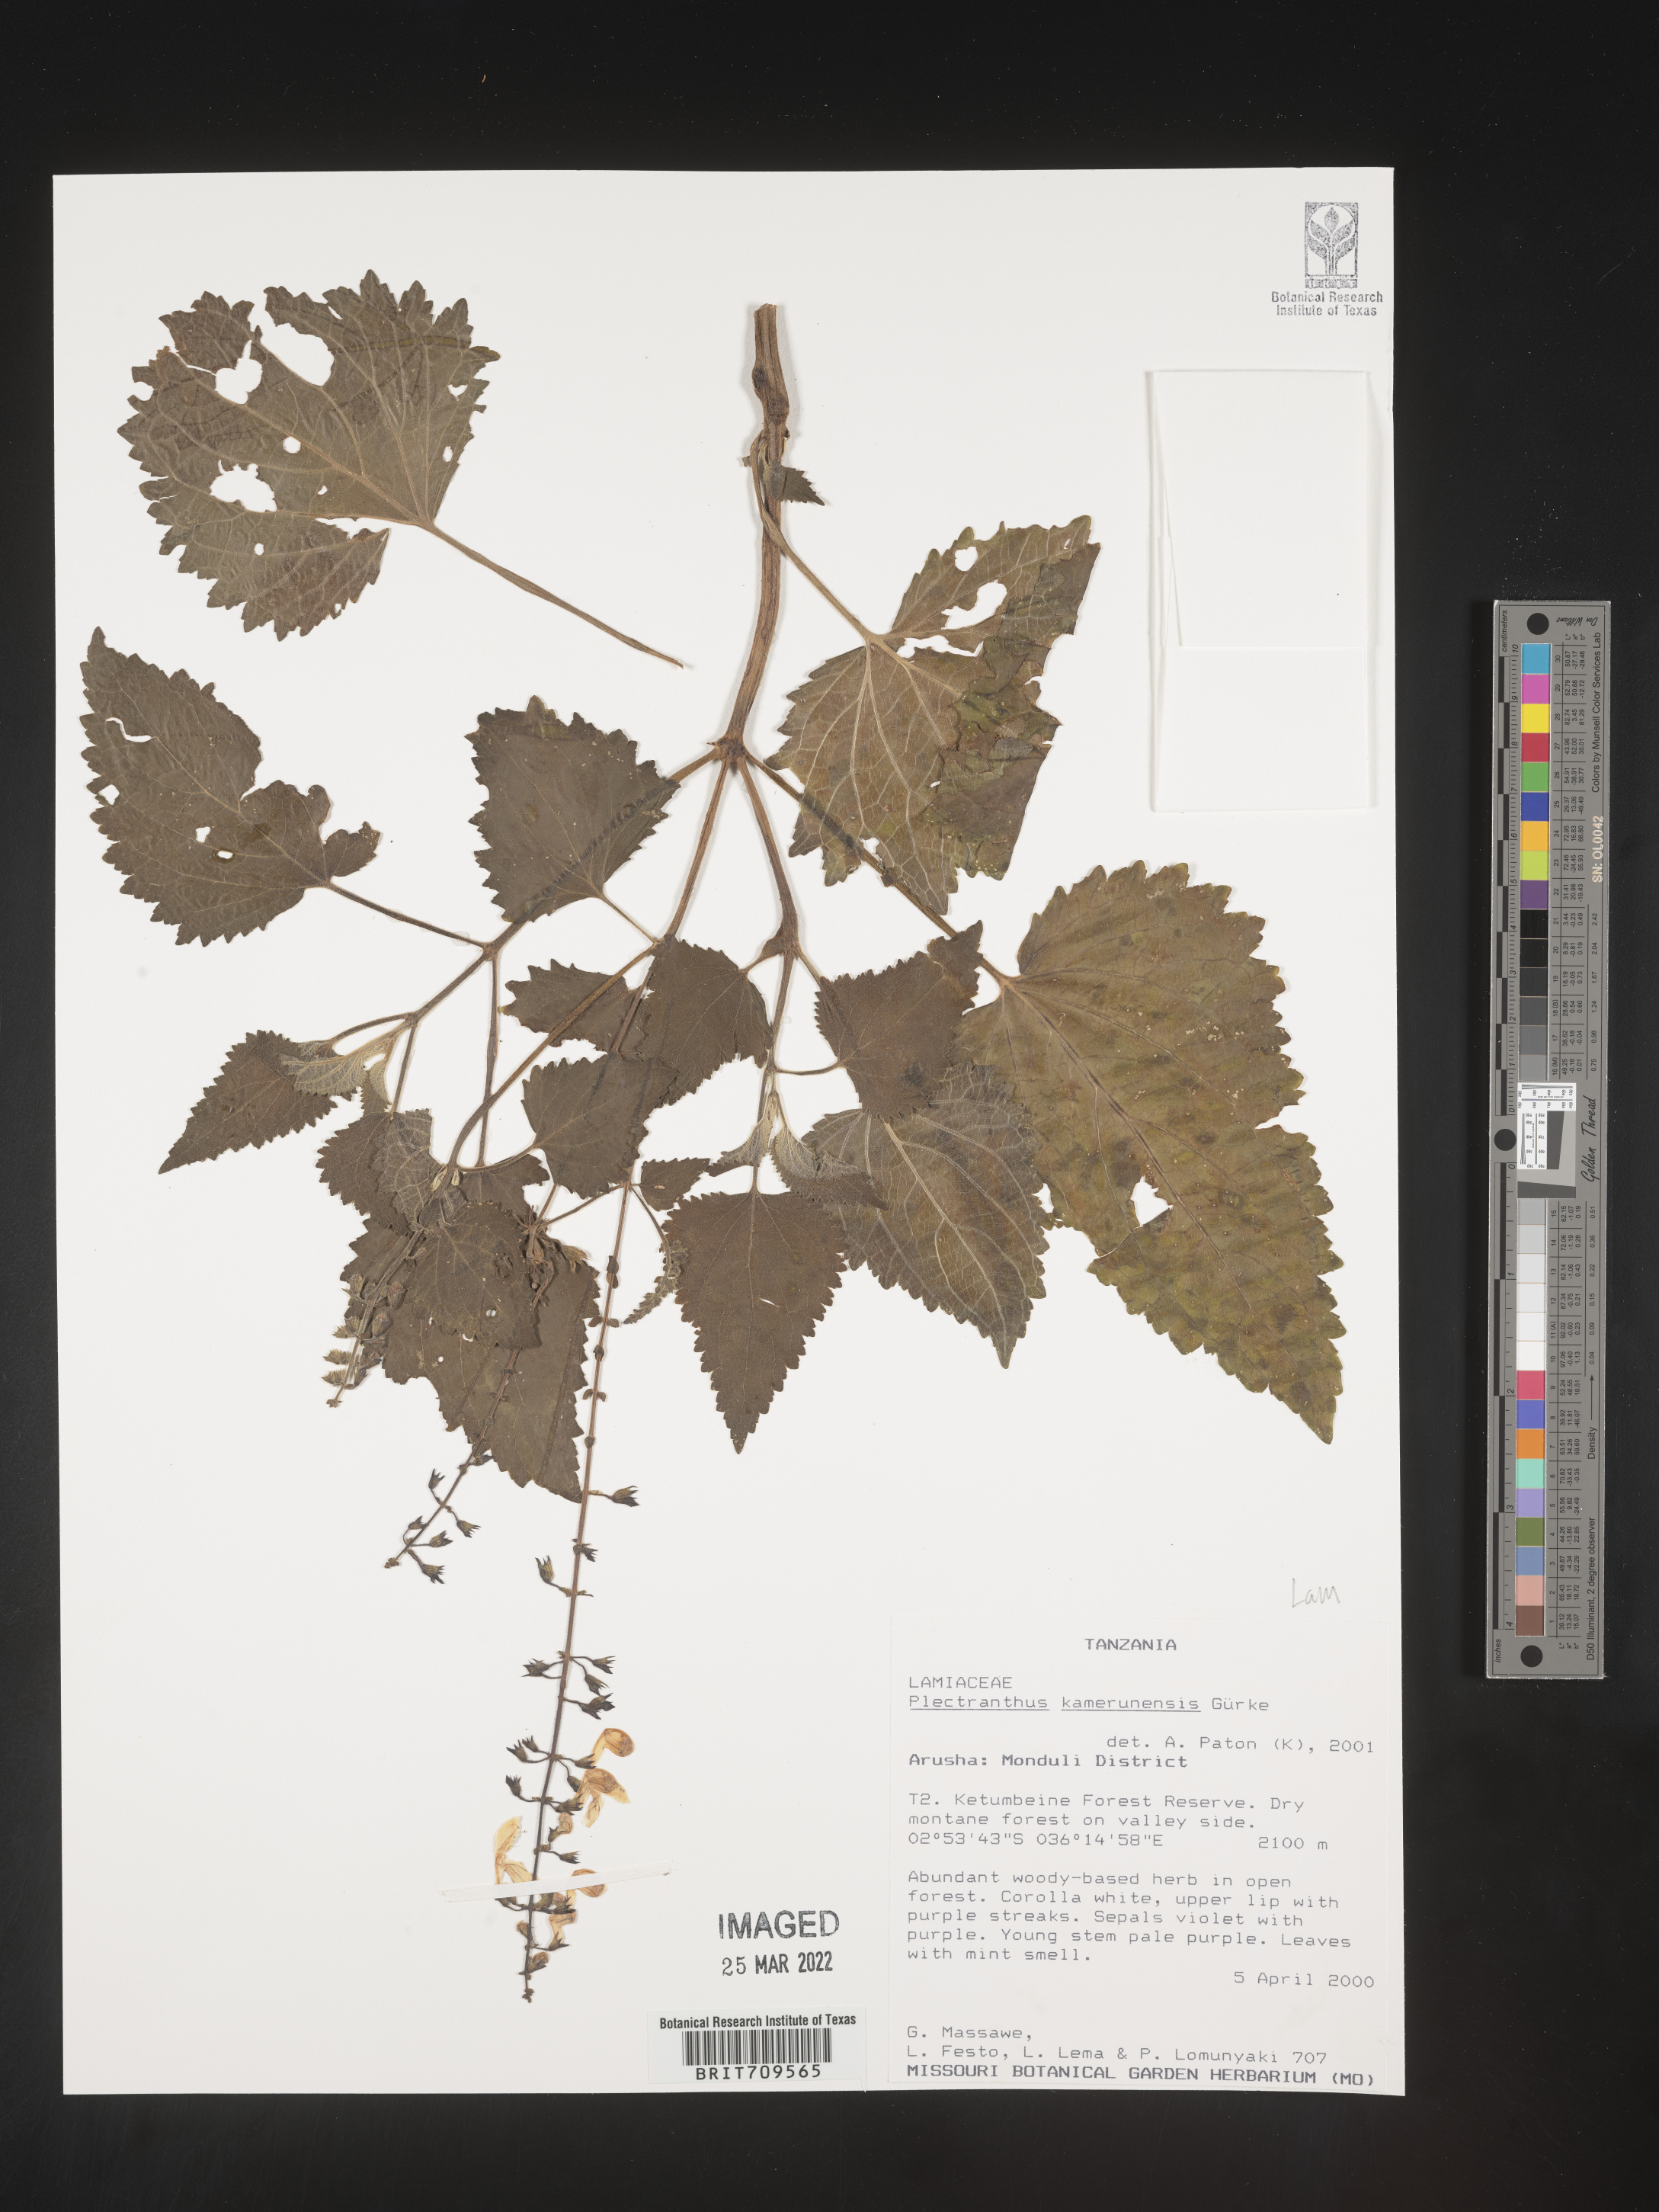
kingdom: Plantae
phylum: Tracheophyta
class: Magnoliopsida
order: Lamiales
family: Lamiaceae
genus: Plectranthus
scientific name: Plectranthus
